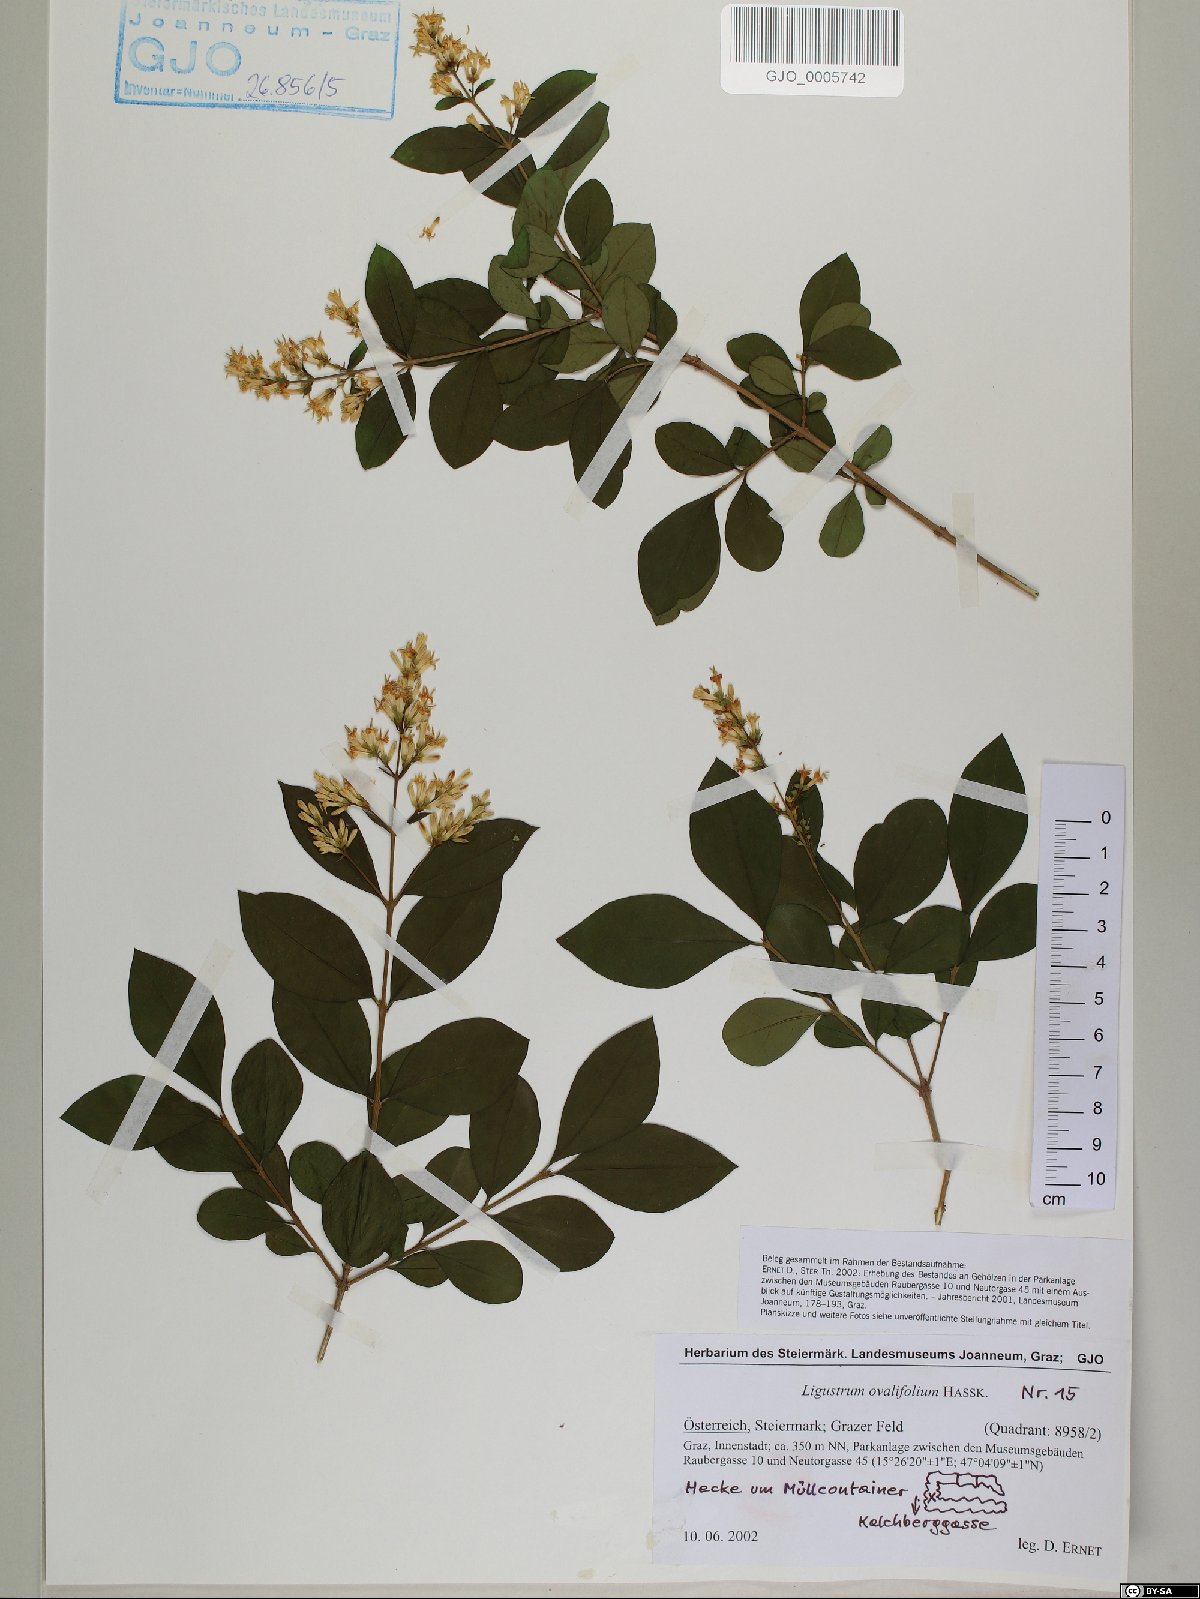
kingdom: Plantae
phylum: Tracheophyta
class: Magnoliopsida
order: Lamiales
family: Oleaceae
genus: Ligustrum
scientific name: Ligustrum ovalifolium
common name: California privet
